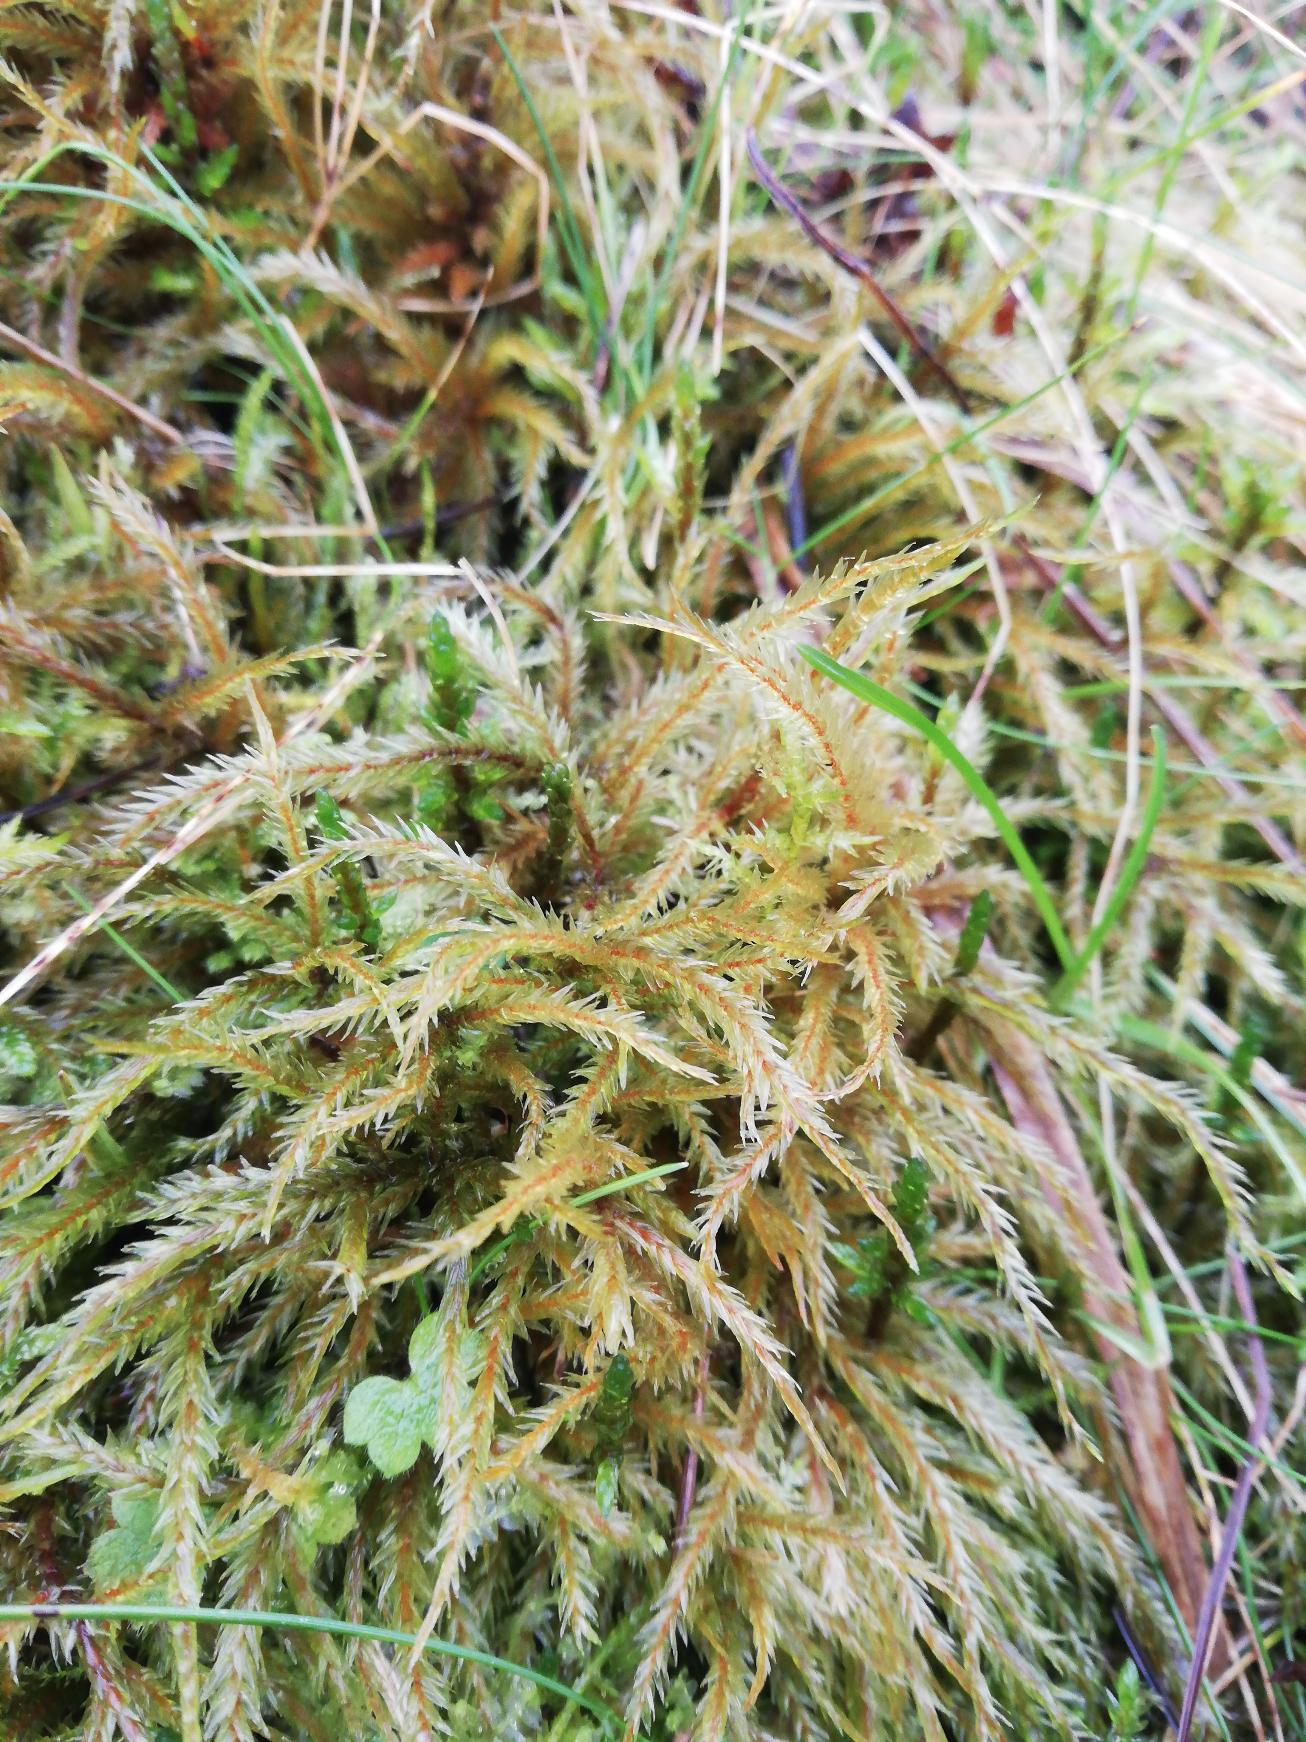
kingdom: Plantae
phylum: Bryophyta
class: Bryopsida
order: Hypnales
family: Climaciaceae
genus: Climacium
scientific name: Climacium dendroides
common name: Stor engkost
